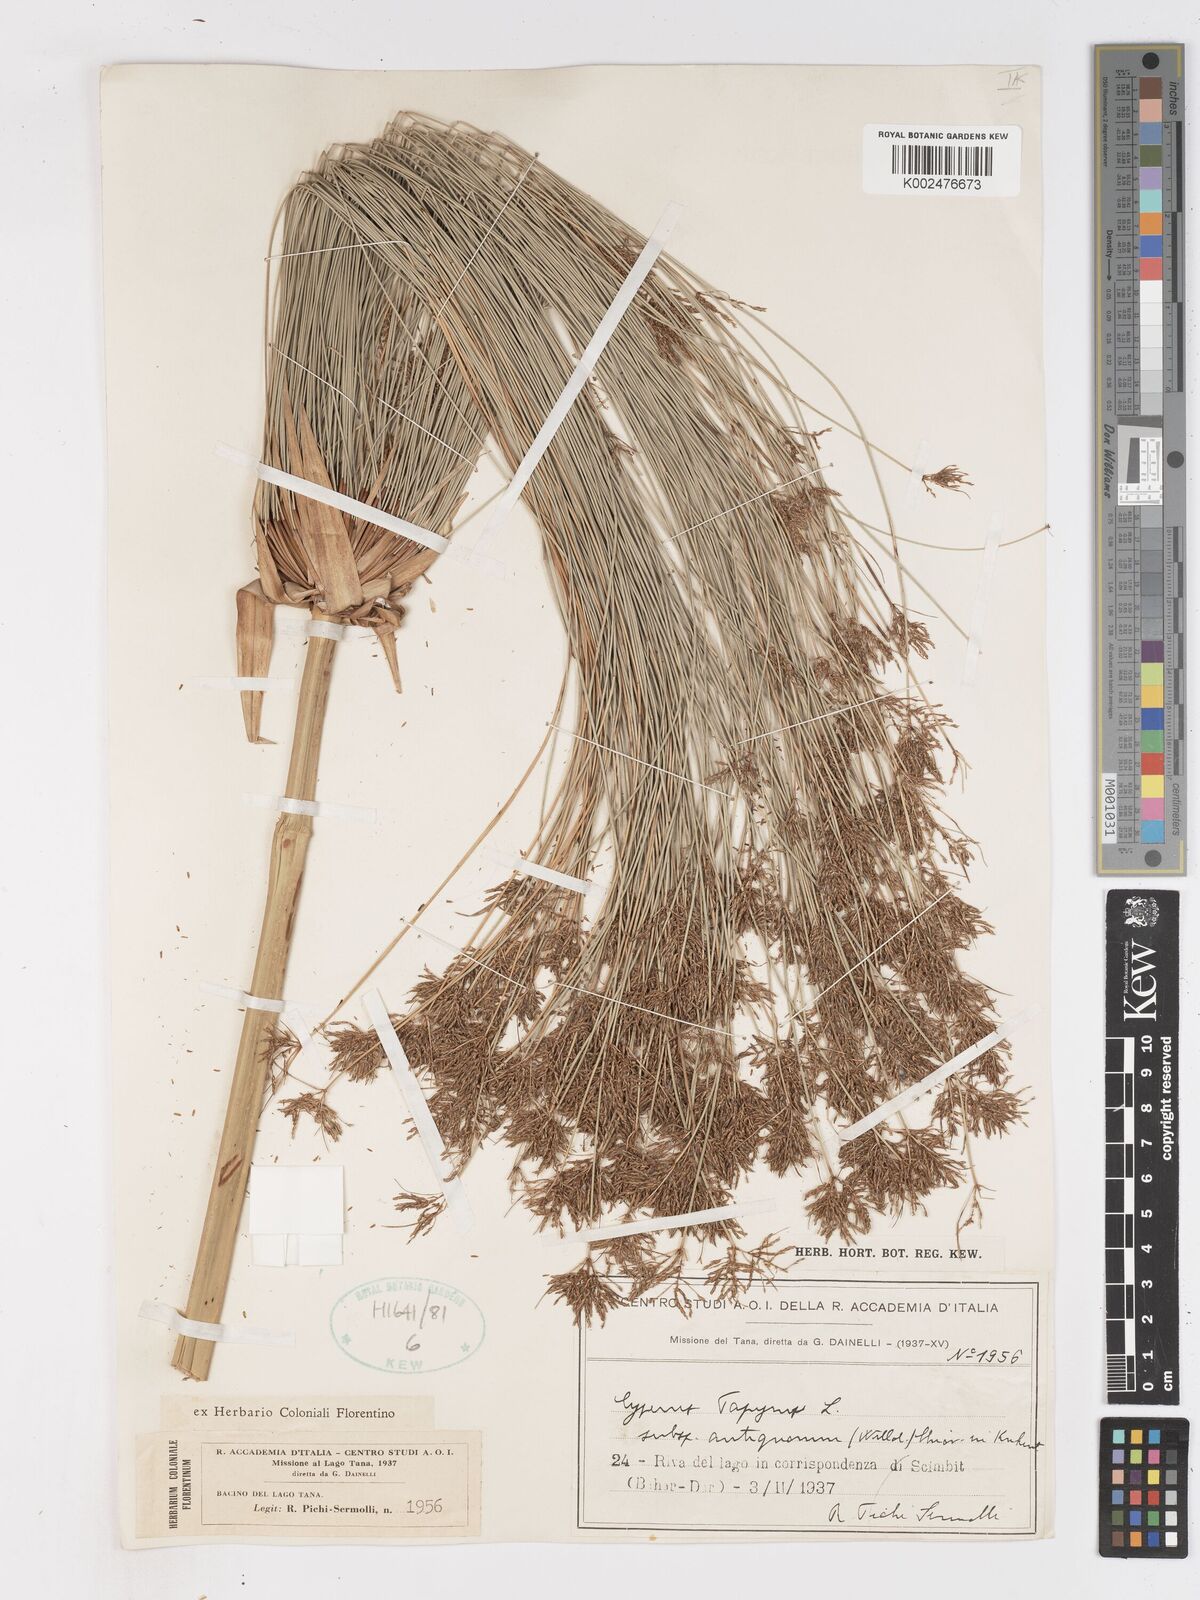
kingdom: Plantae
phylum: Tracheophyta
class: Liliopsida
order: Poales
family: Cyperaceae
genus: Cyperus
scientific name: Cyperus papyrus
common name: Papyrus
